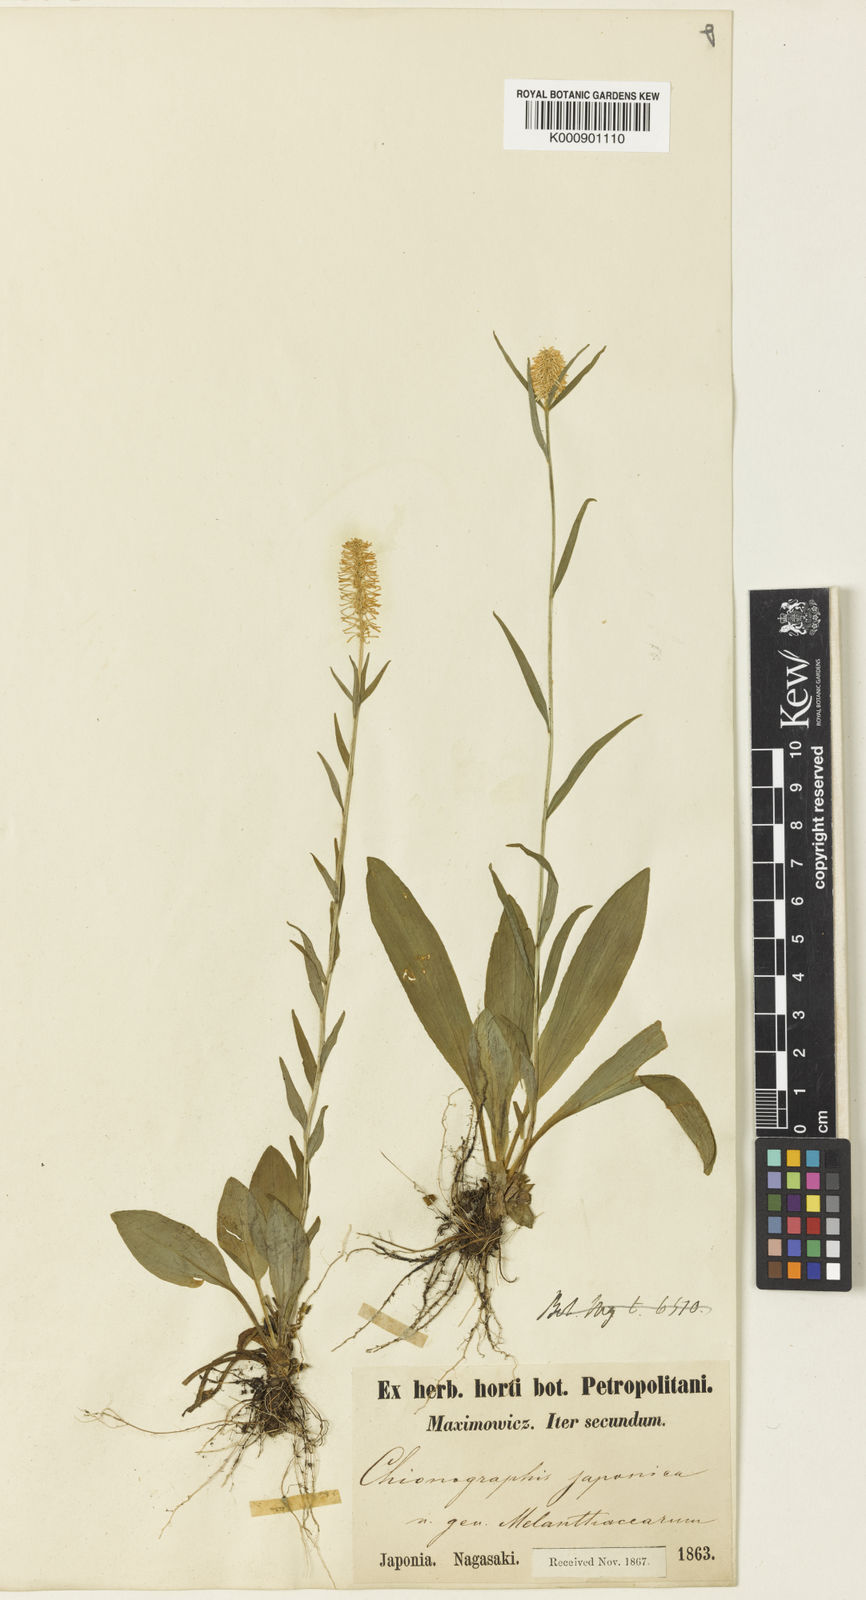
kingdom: Plantae
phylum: Tracheophyta
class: Liliopsida
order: Liliales
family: Melanthiaceae
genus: Chamaelirium
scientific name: Chamaelirium japonicum
